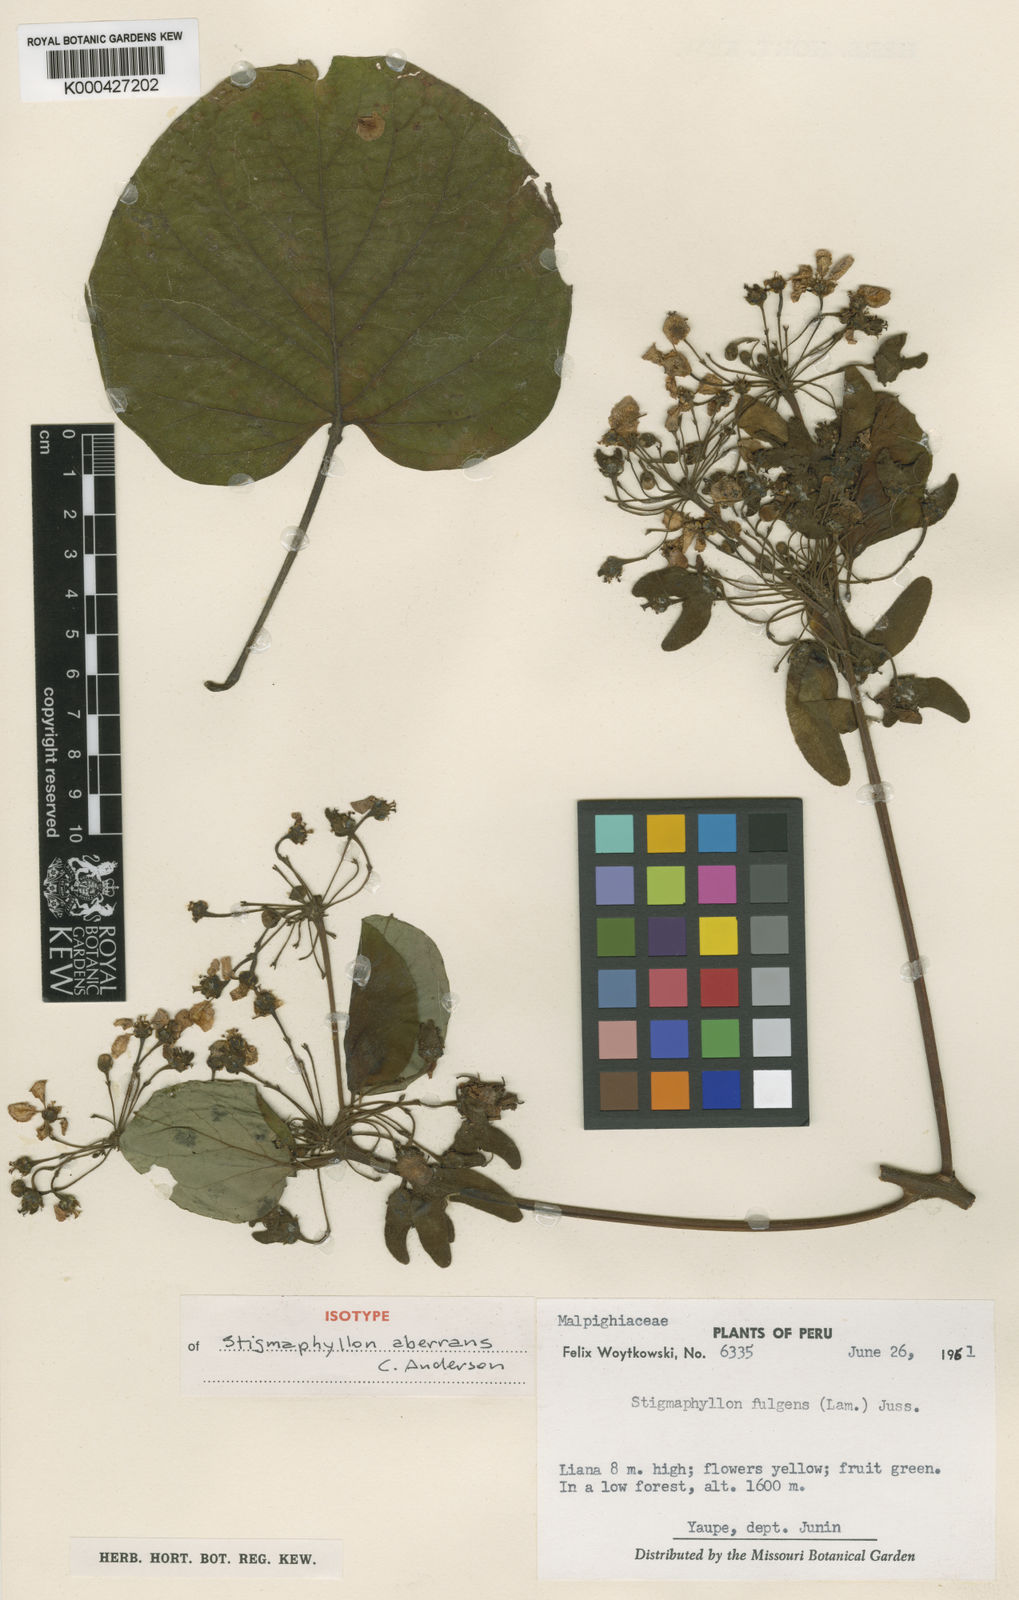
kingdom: Plantae
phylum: Tracheophyta
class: Magnoliopsida
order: Malpighiales
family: Malpighiaceae
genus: Stigmaphyllon
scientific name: Stigmaphyllon aberrans
